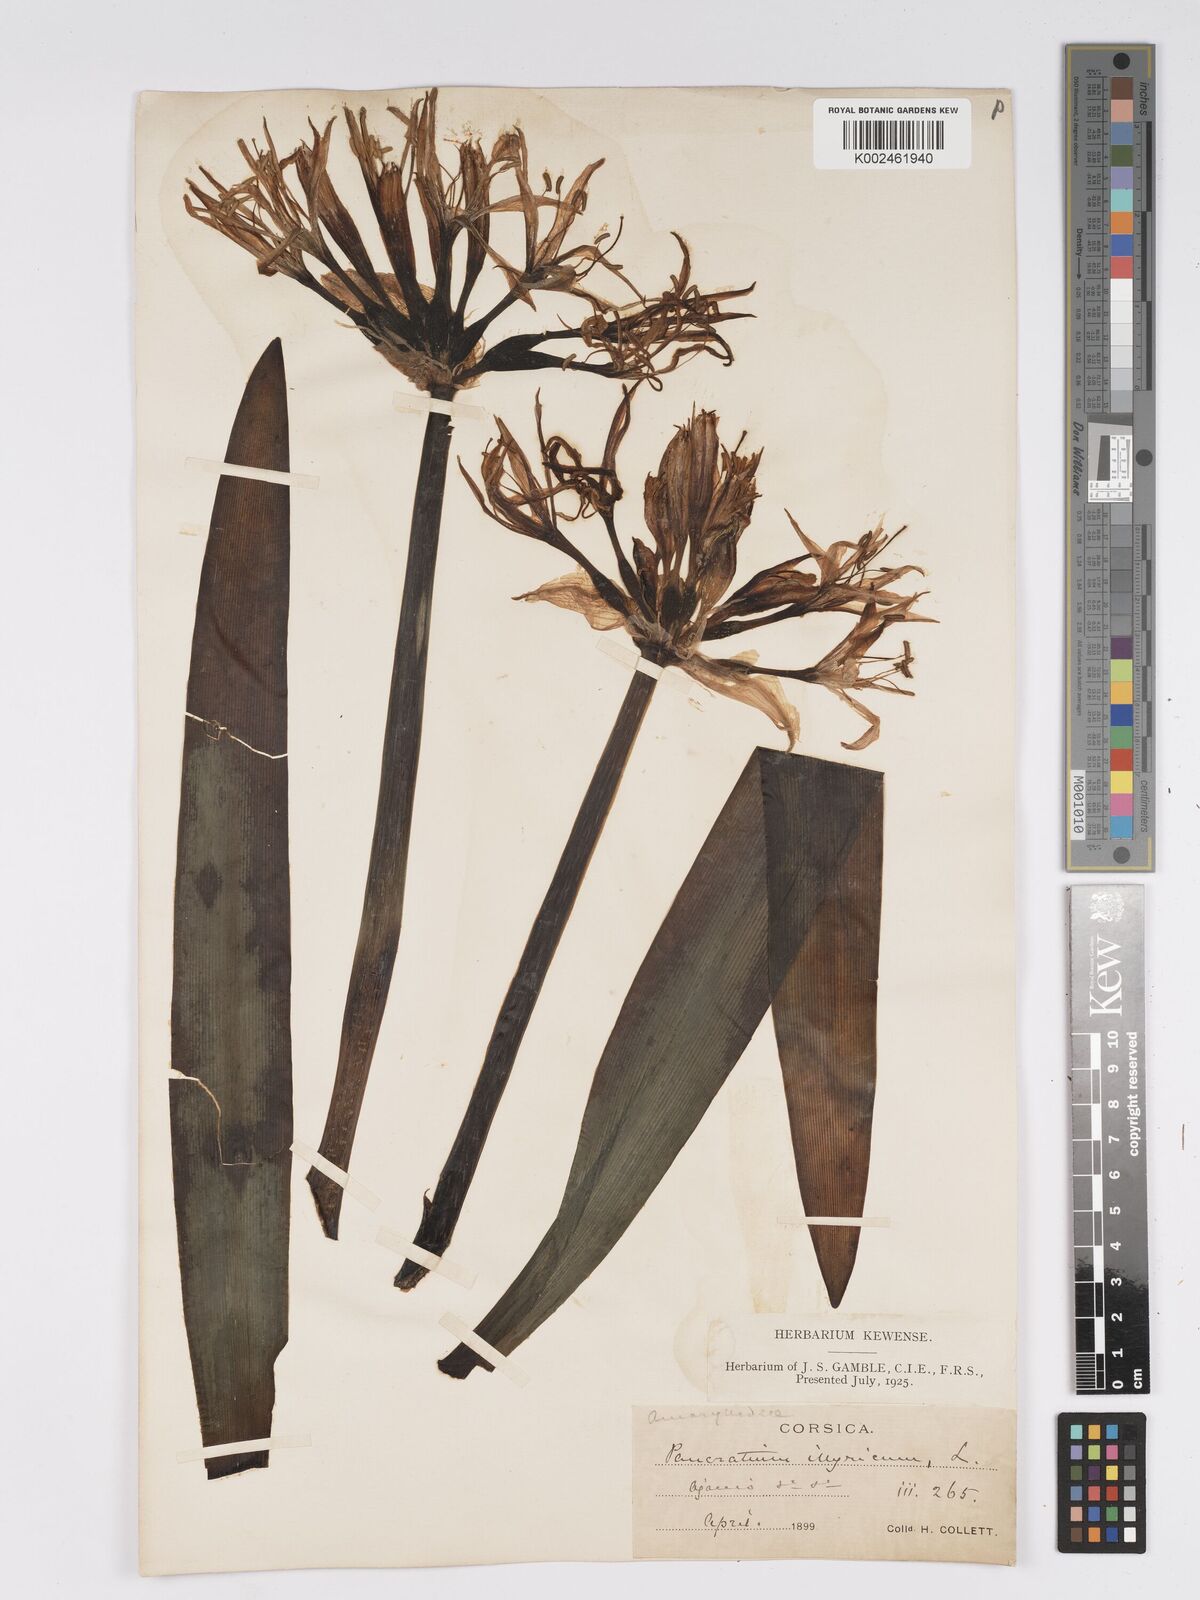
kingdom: Plantae
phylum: Tracheophyta
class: Liliopsida
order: Asparagales
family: Amaryllidaceae
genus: Pancratium
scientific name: Pancratium illyricum
